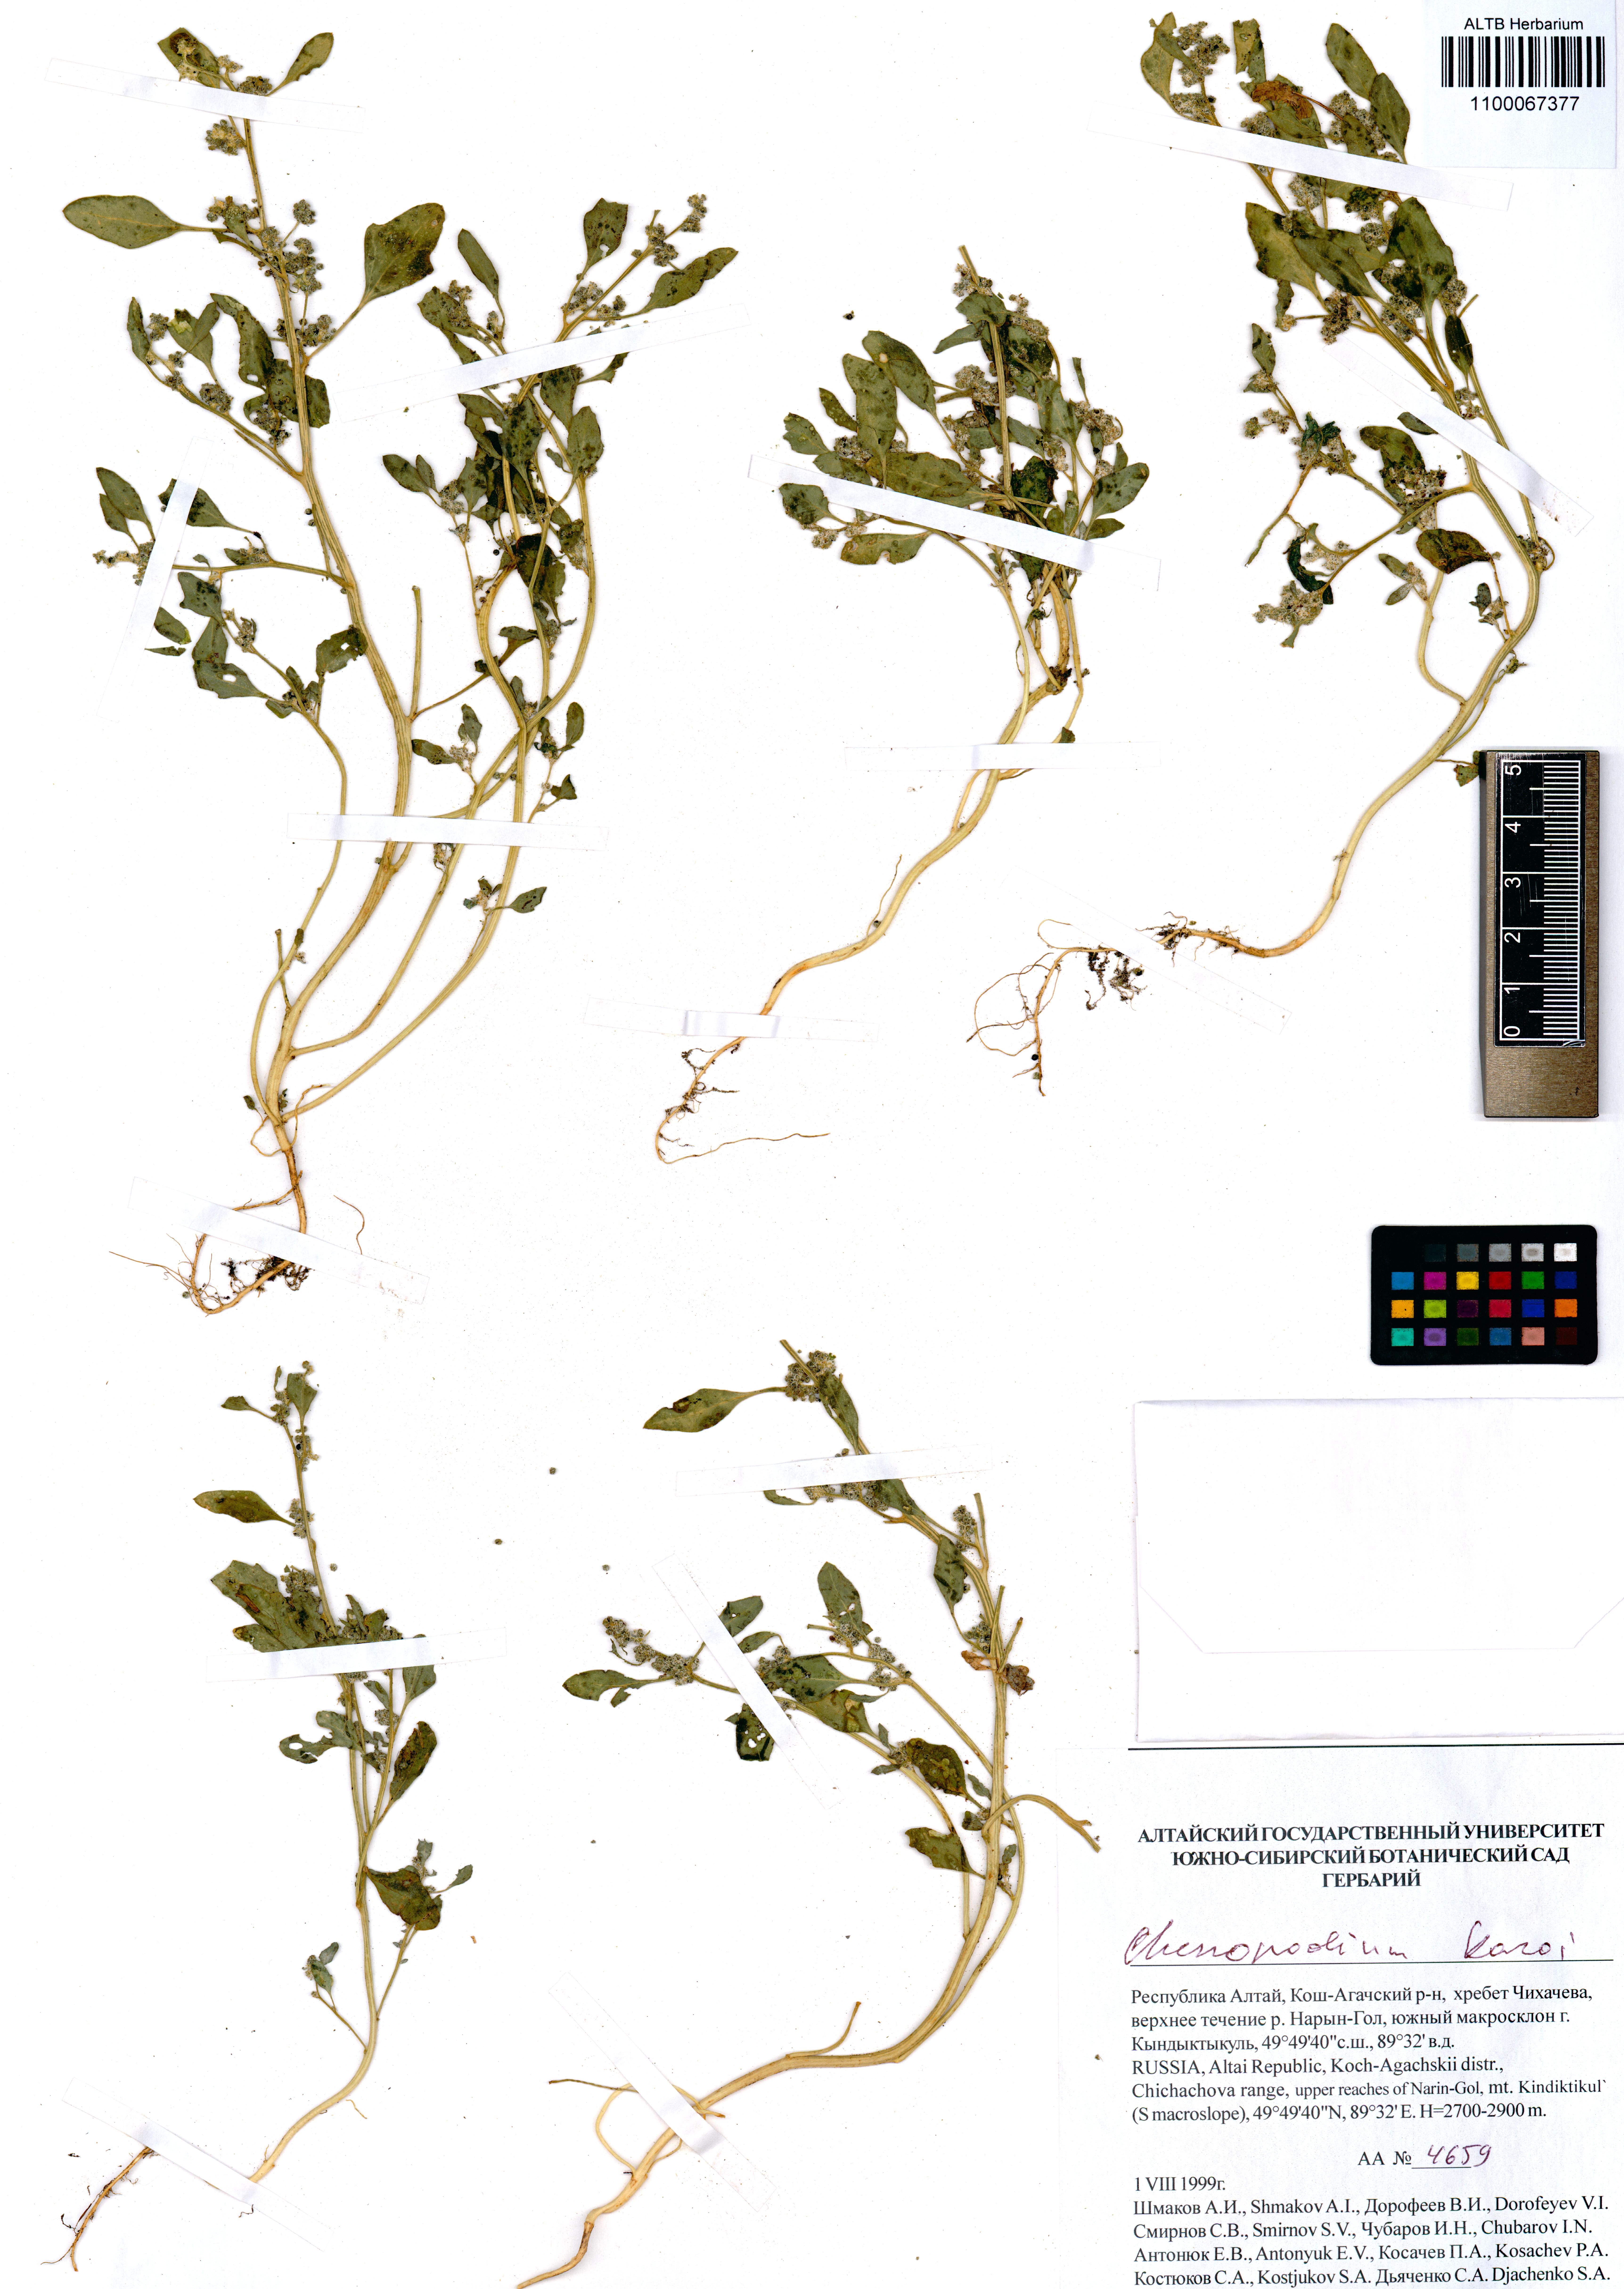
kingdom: Plantae
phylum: Tracheophyta
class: Magnoliopsida
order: Caryophyllales
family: Amaranthaceae
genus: Chenopodium
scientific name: Chenopodium karoi
